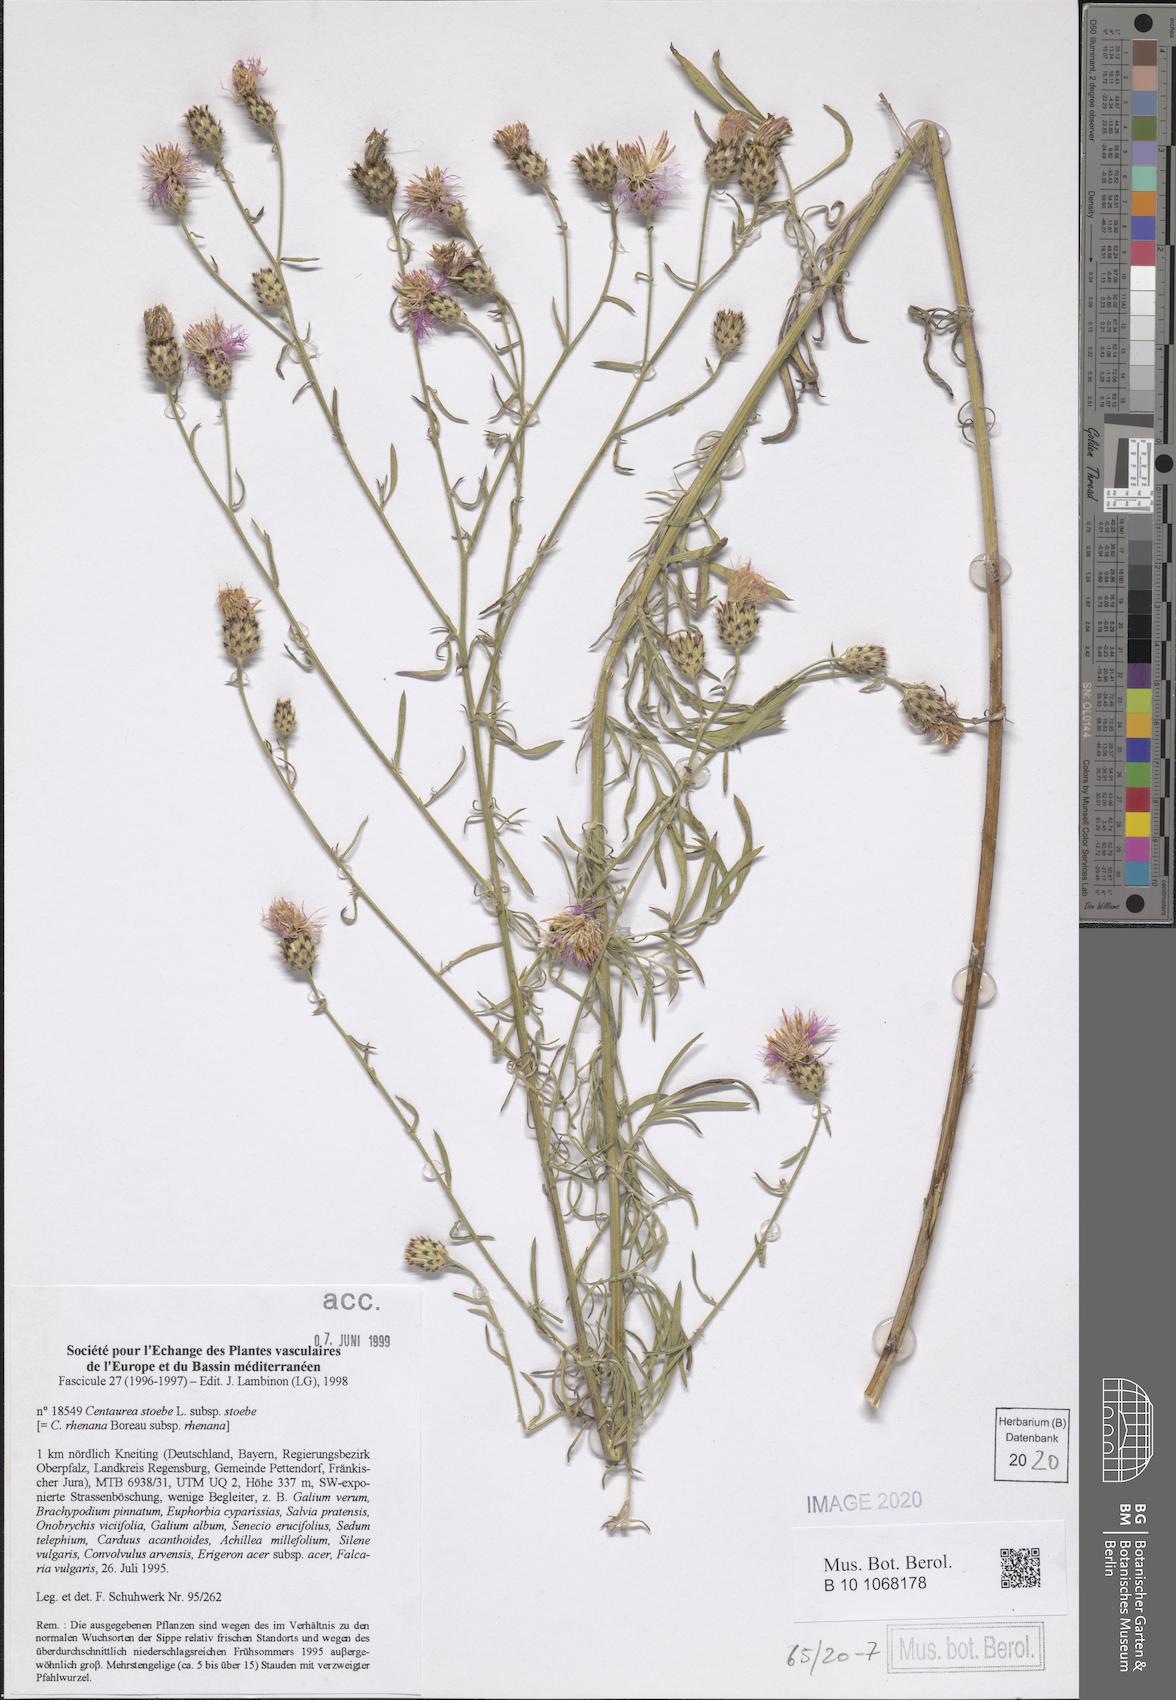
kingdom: Plantae
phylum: Tracheophyta
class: Magnoliopsida
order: Asterales
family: Asteraceae
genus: Centaurea
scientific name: Centaurea stoebe
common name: Spotted knapweed
